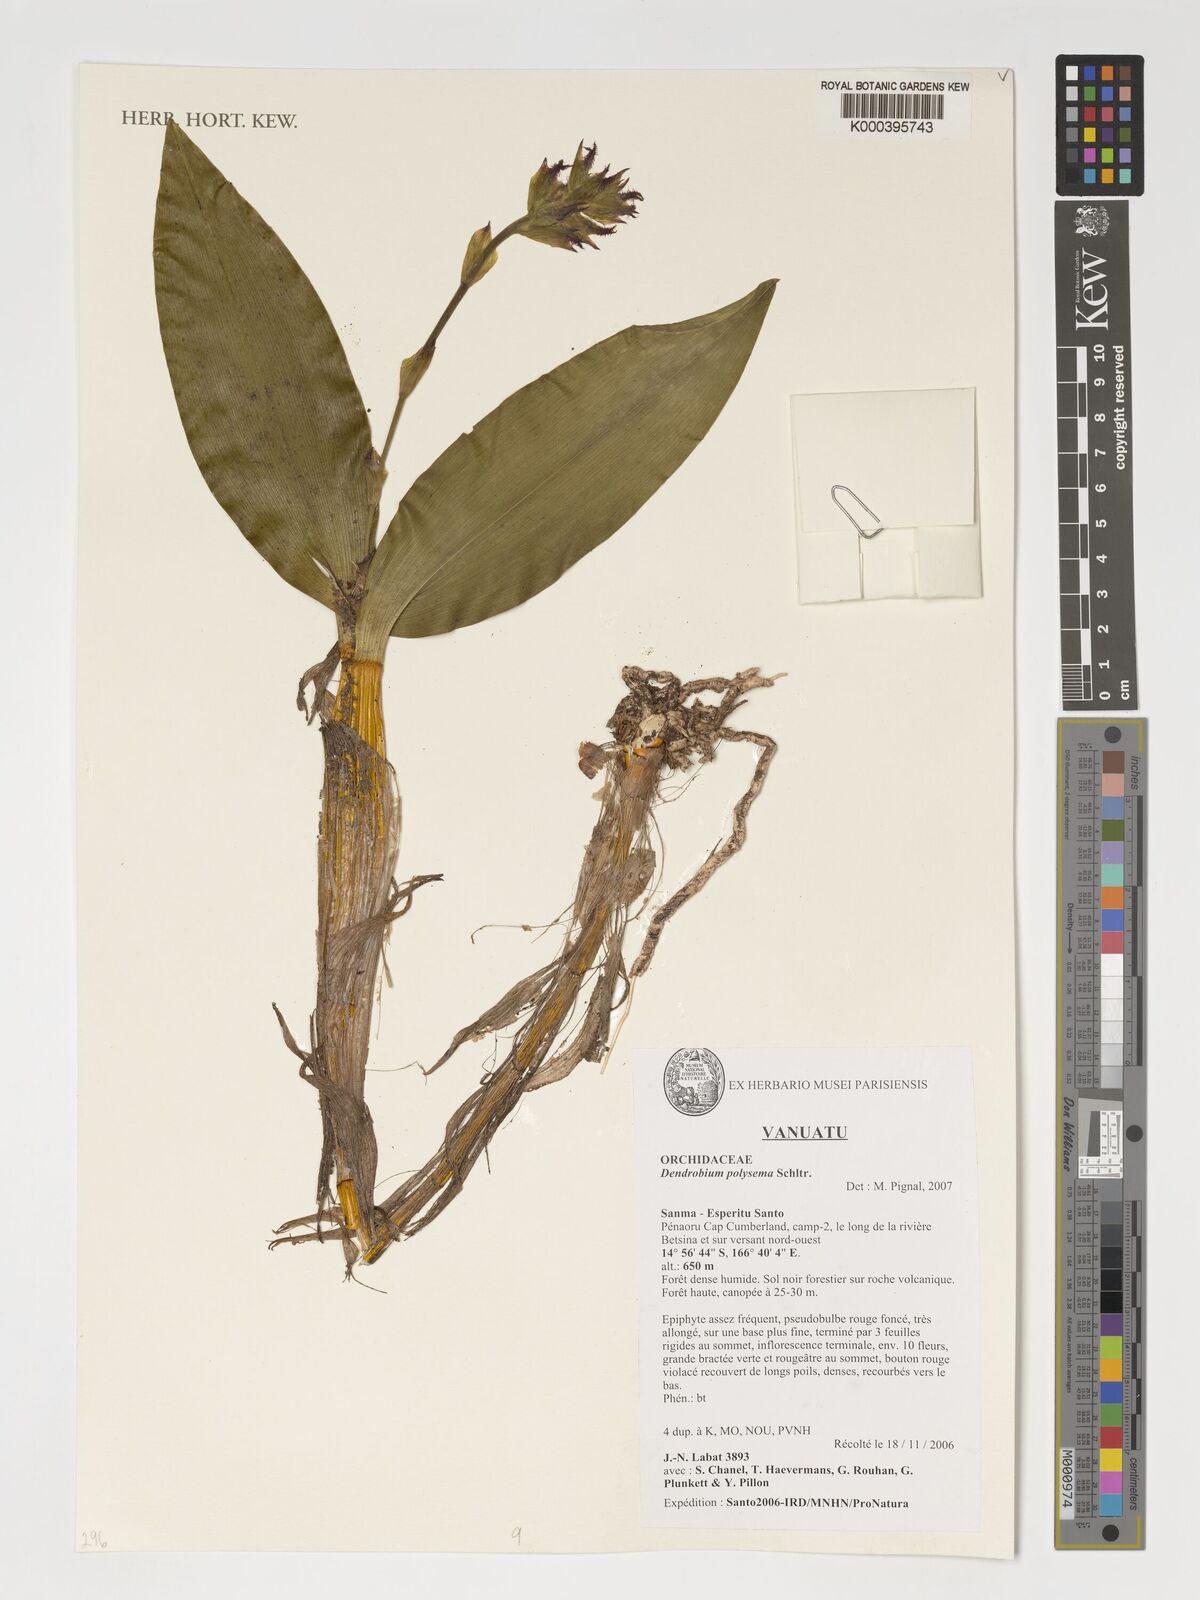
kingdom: Plantae
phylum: Tracheophyta
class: Liliopsida
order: Asparagales
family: Orchidaceae
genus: Dendrobium
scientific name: Dendrobium polysema
